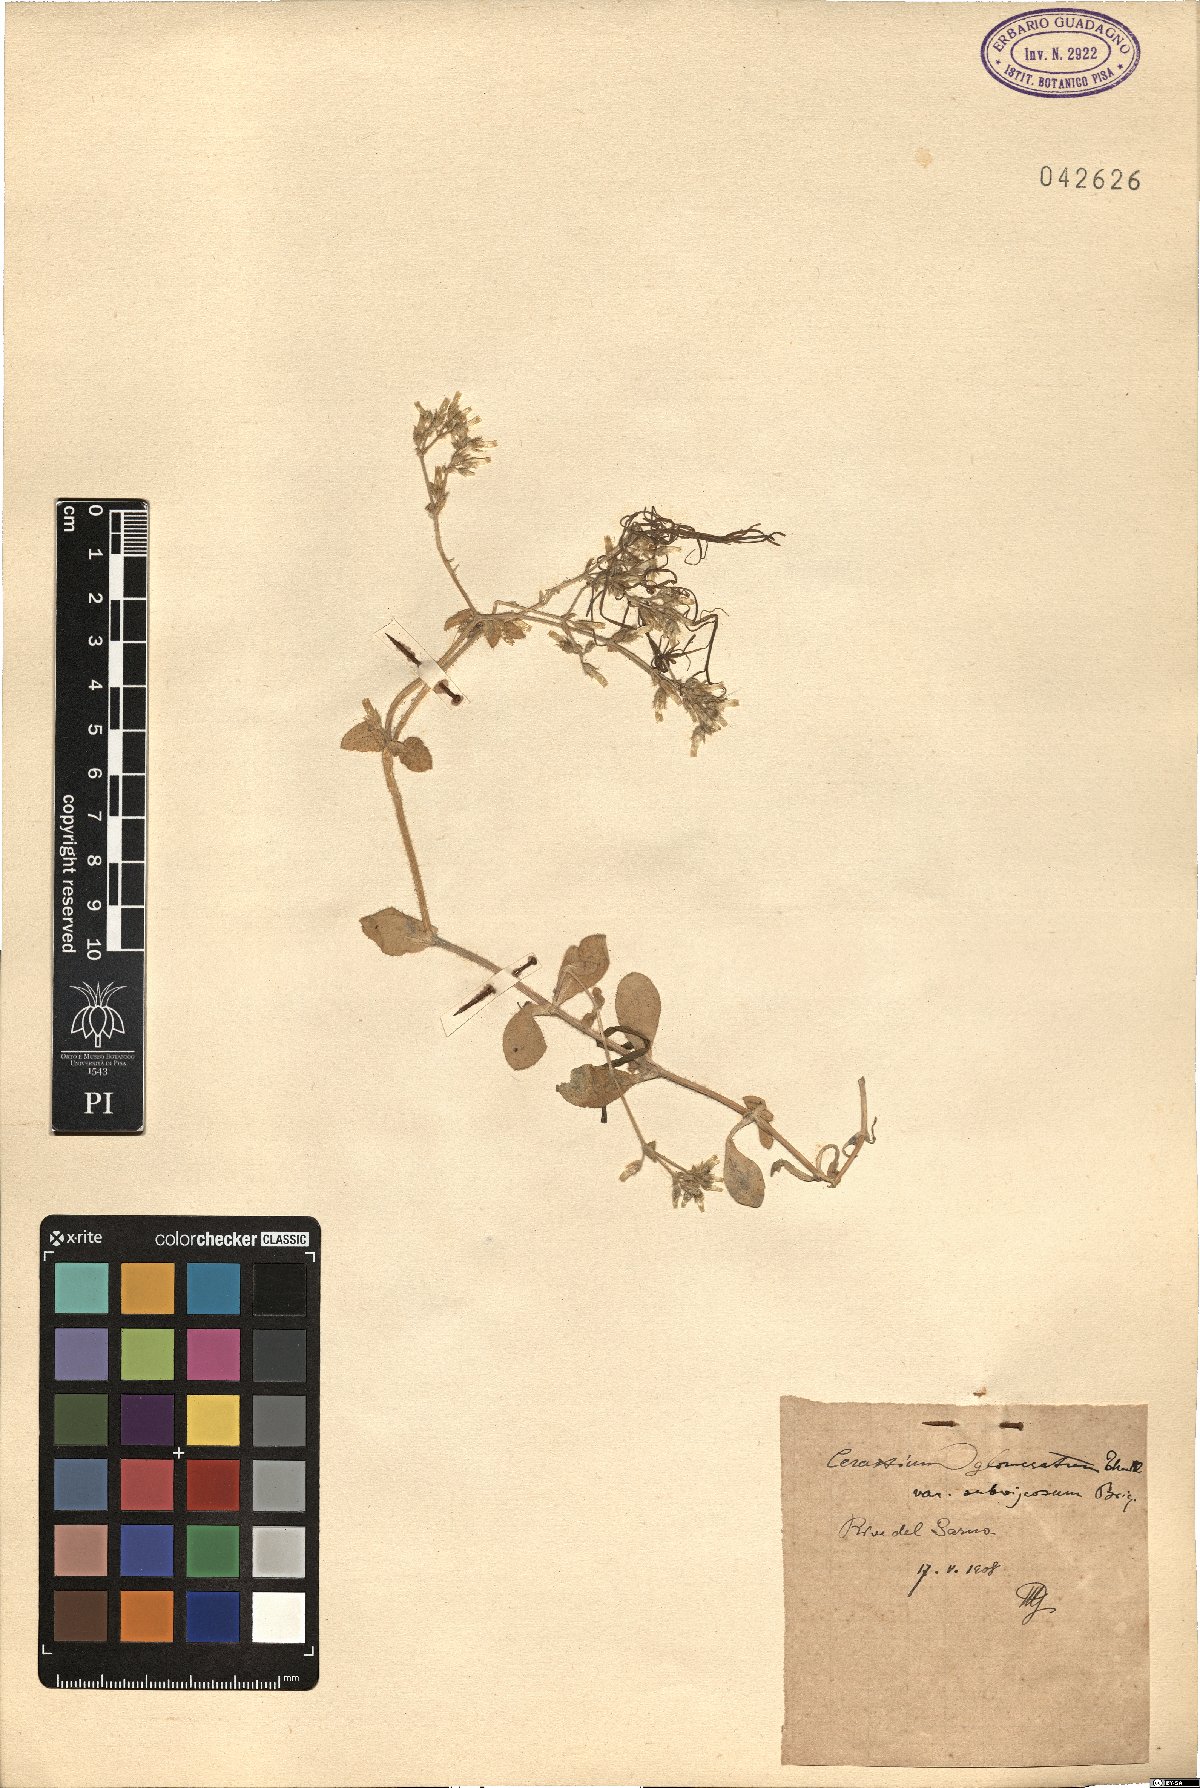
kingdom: Plantae
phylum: Tracheophyta
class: Magnoliopsida
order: Caryophyllales
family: Caryophyllaceae
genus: Cerastium
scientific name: Cerastium glomeratum
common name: Sticky chickweed
